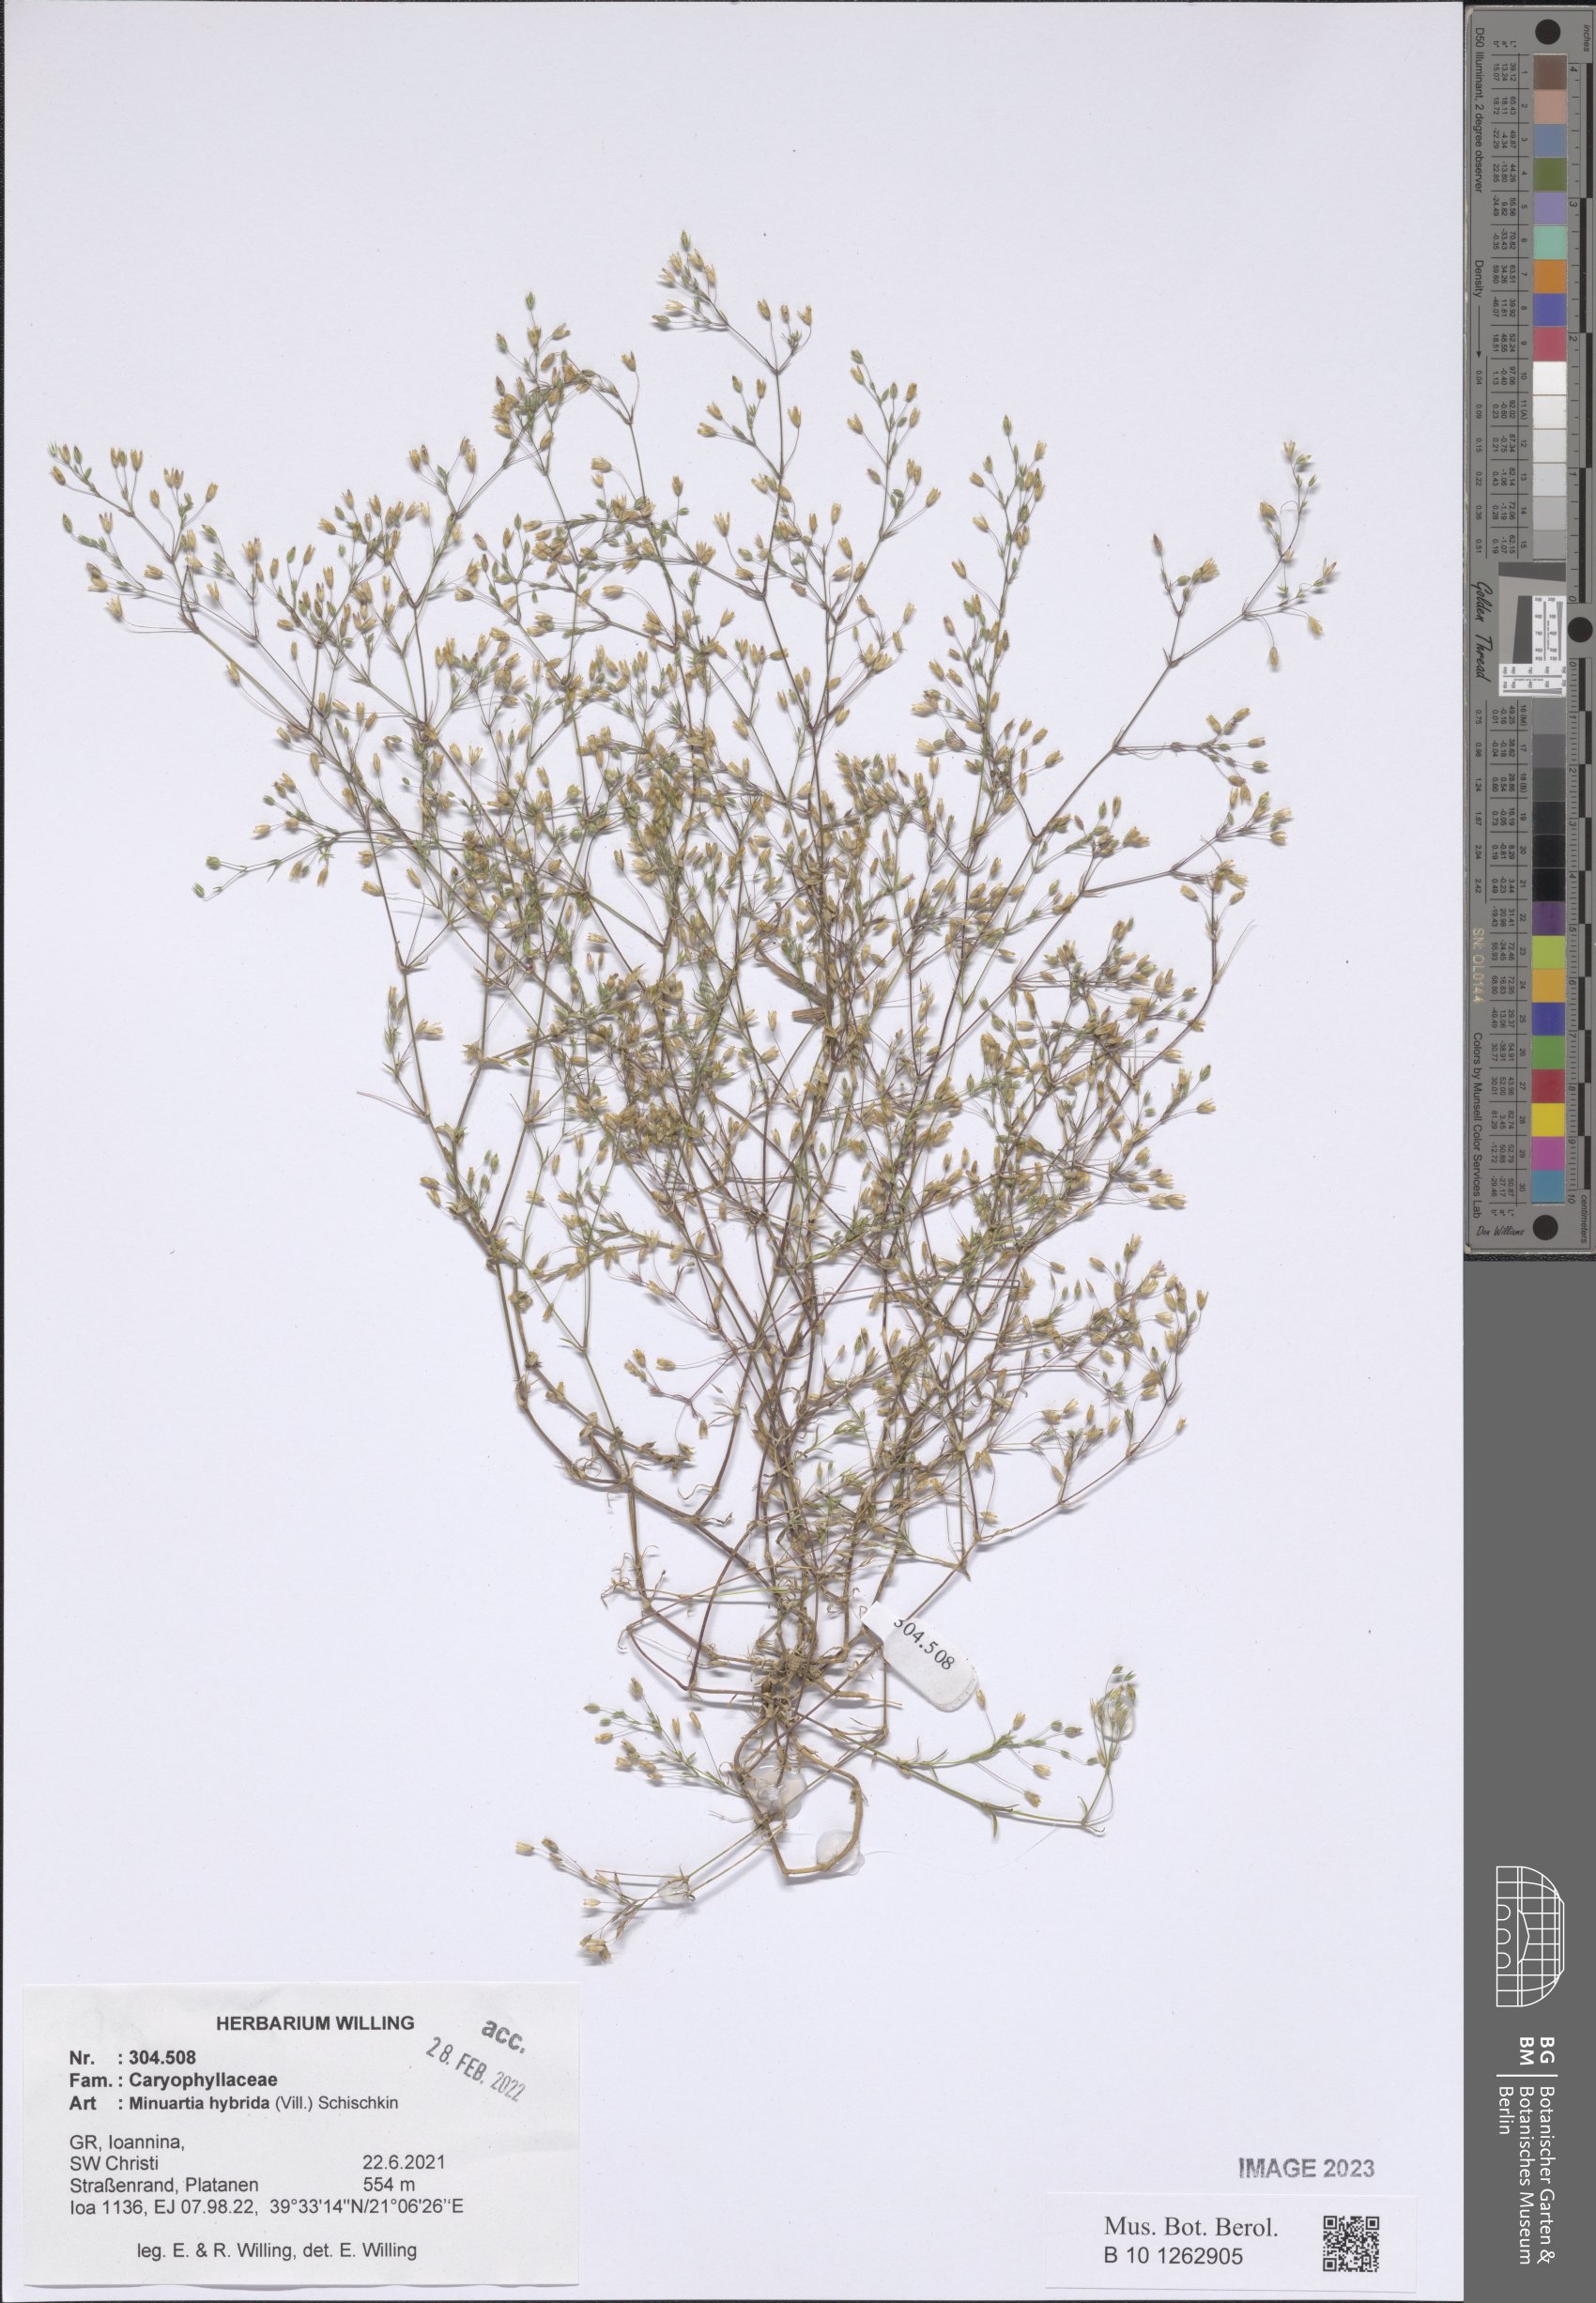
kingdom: Plantae
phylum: Tracheophyta
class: Magnoliopsida
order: Caryophyllales
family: Caryophyllaceae
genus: Sabulina
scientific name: Sabulina tenuifolia
